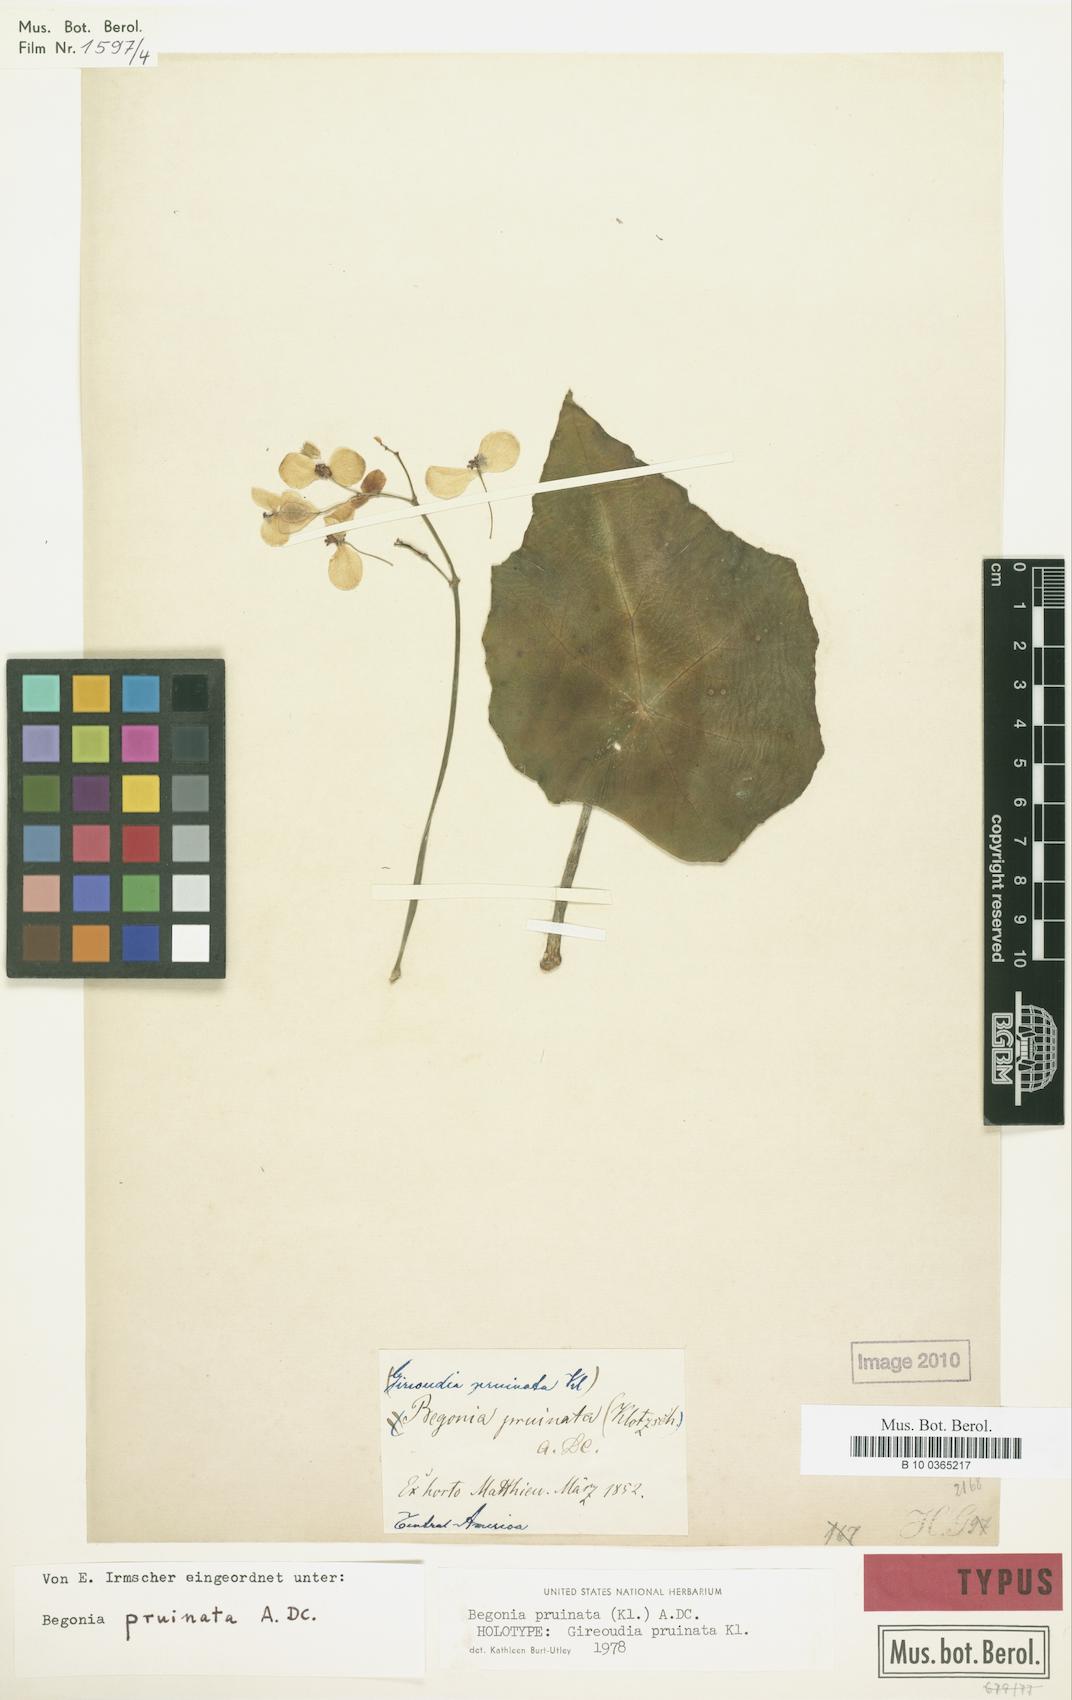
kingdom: Plantae
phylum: Tracheophyta
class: Magnoliopsida
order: Cucurbitales
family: Begoniaceae
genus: Begonia
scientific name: Begonia pruinata
